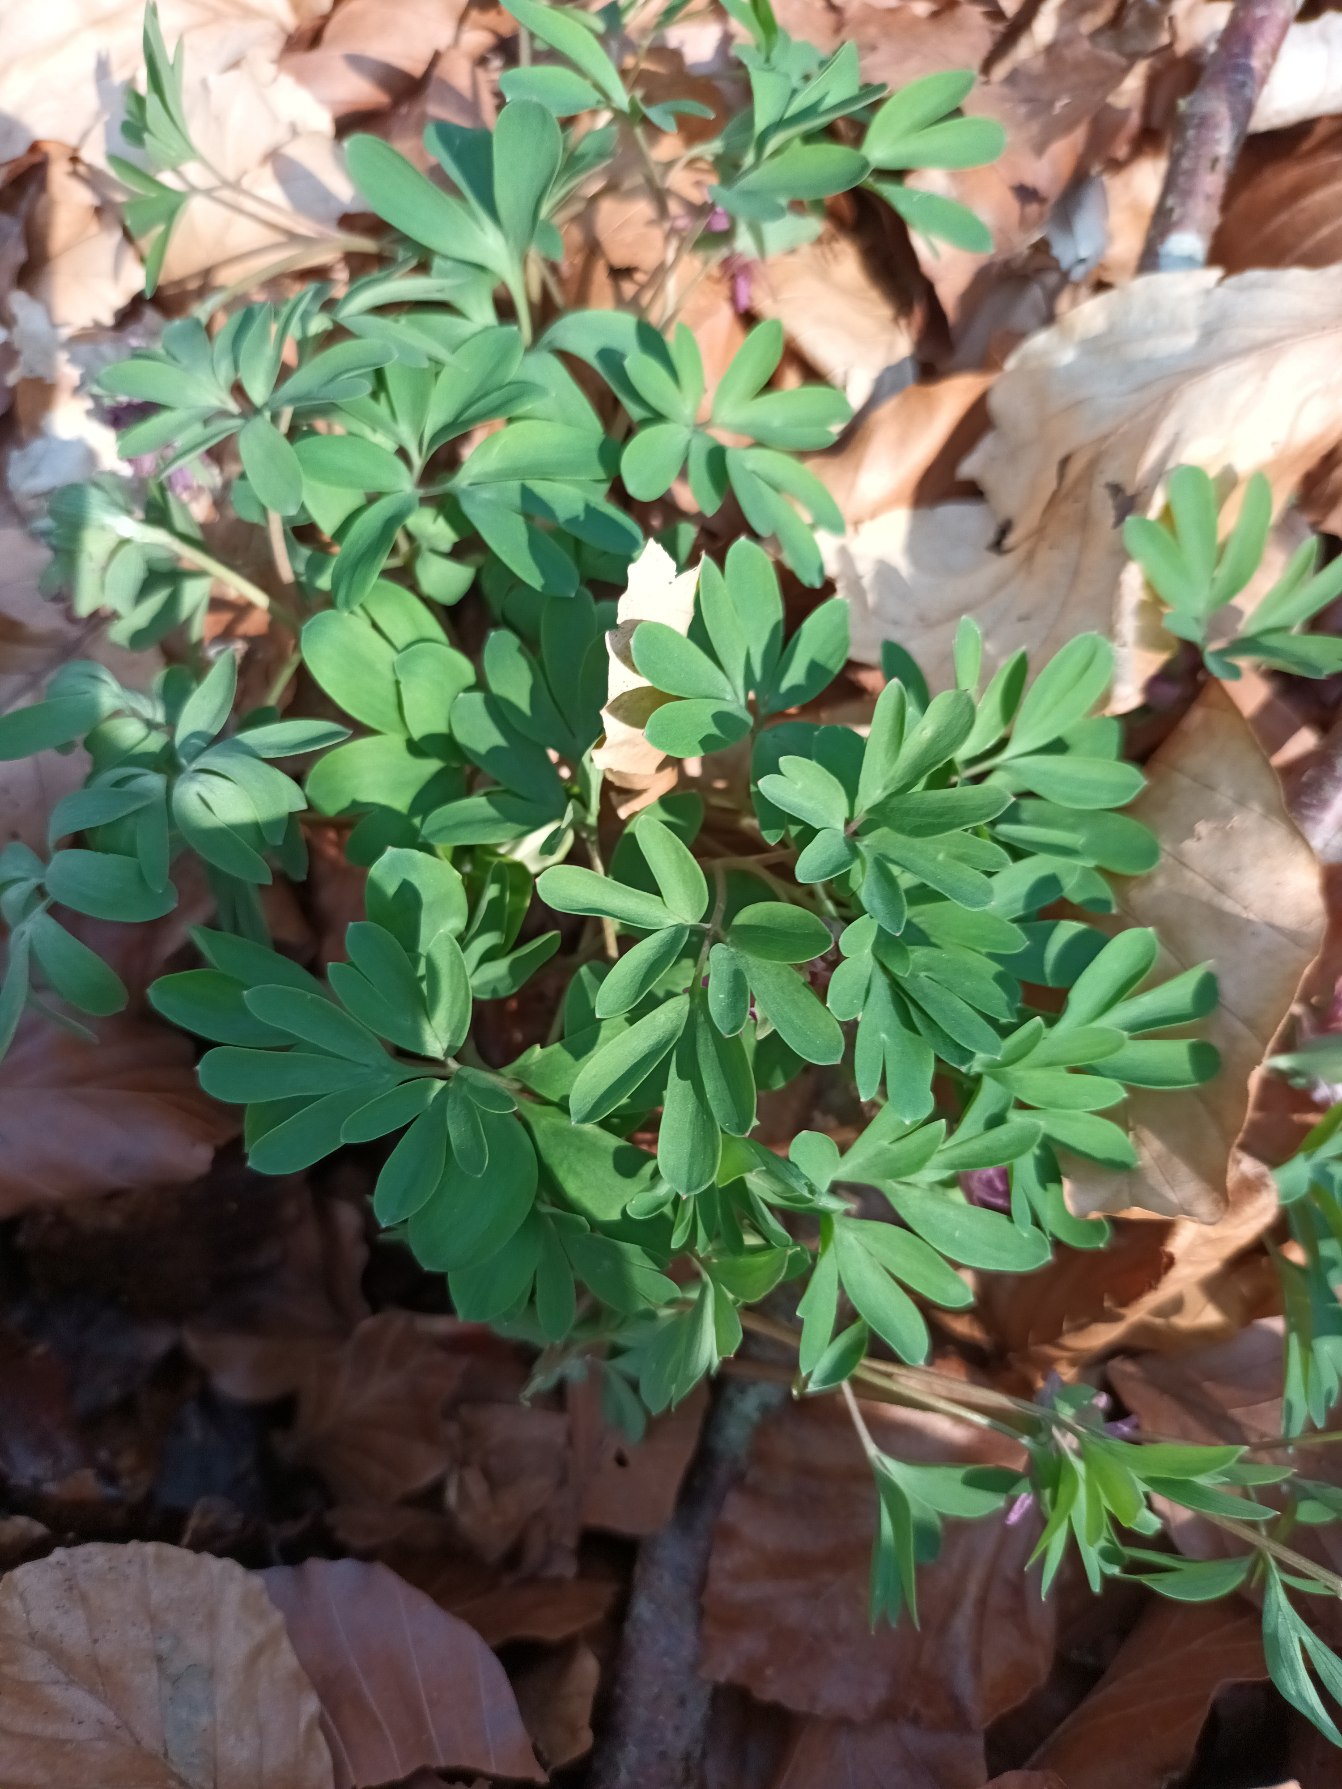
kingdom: Plantae
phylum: Tracheophyta
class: Magnoliopsida
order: Ranunculales
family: Papaveraceae
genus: Corydalis
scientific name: Corydalis intermedia
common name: Liden lærkespore
